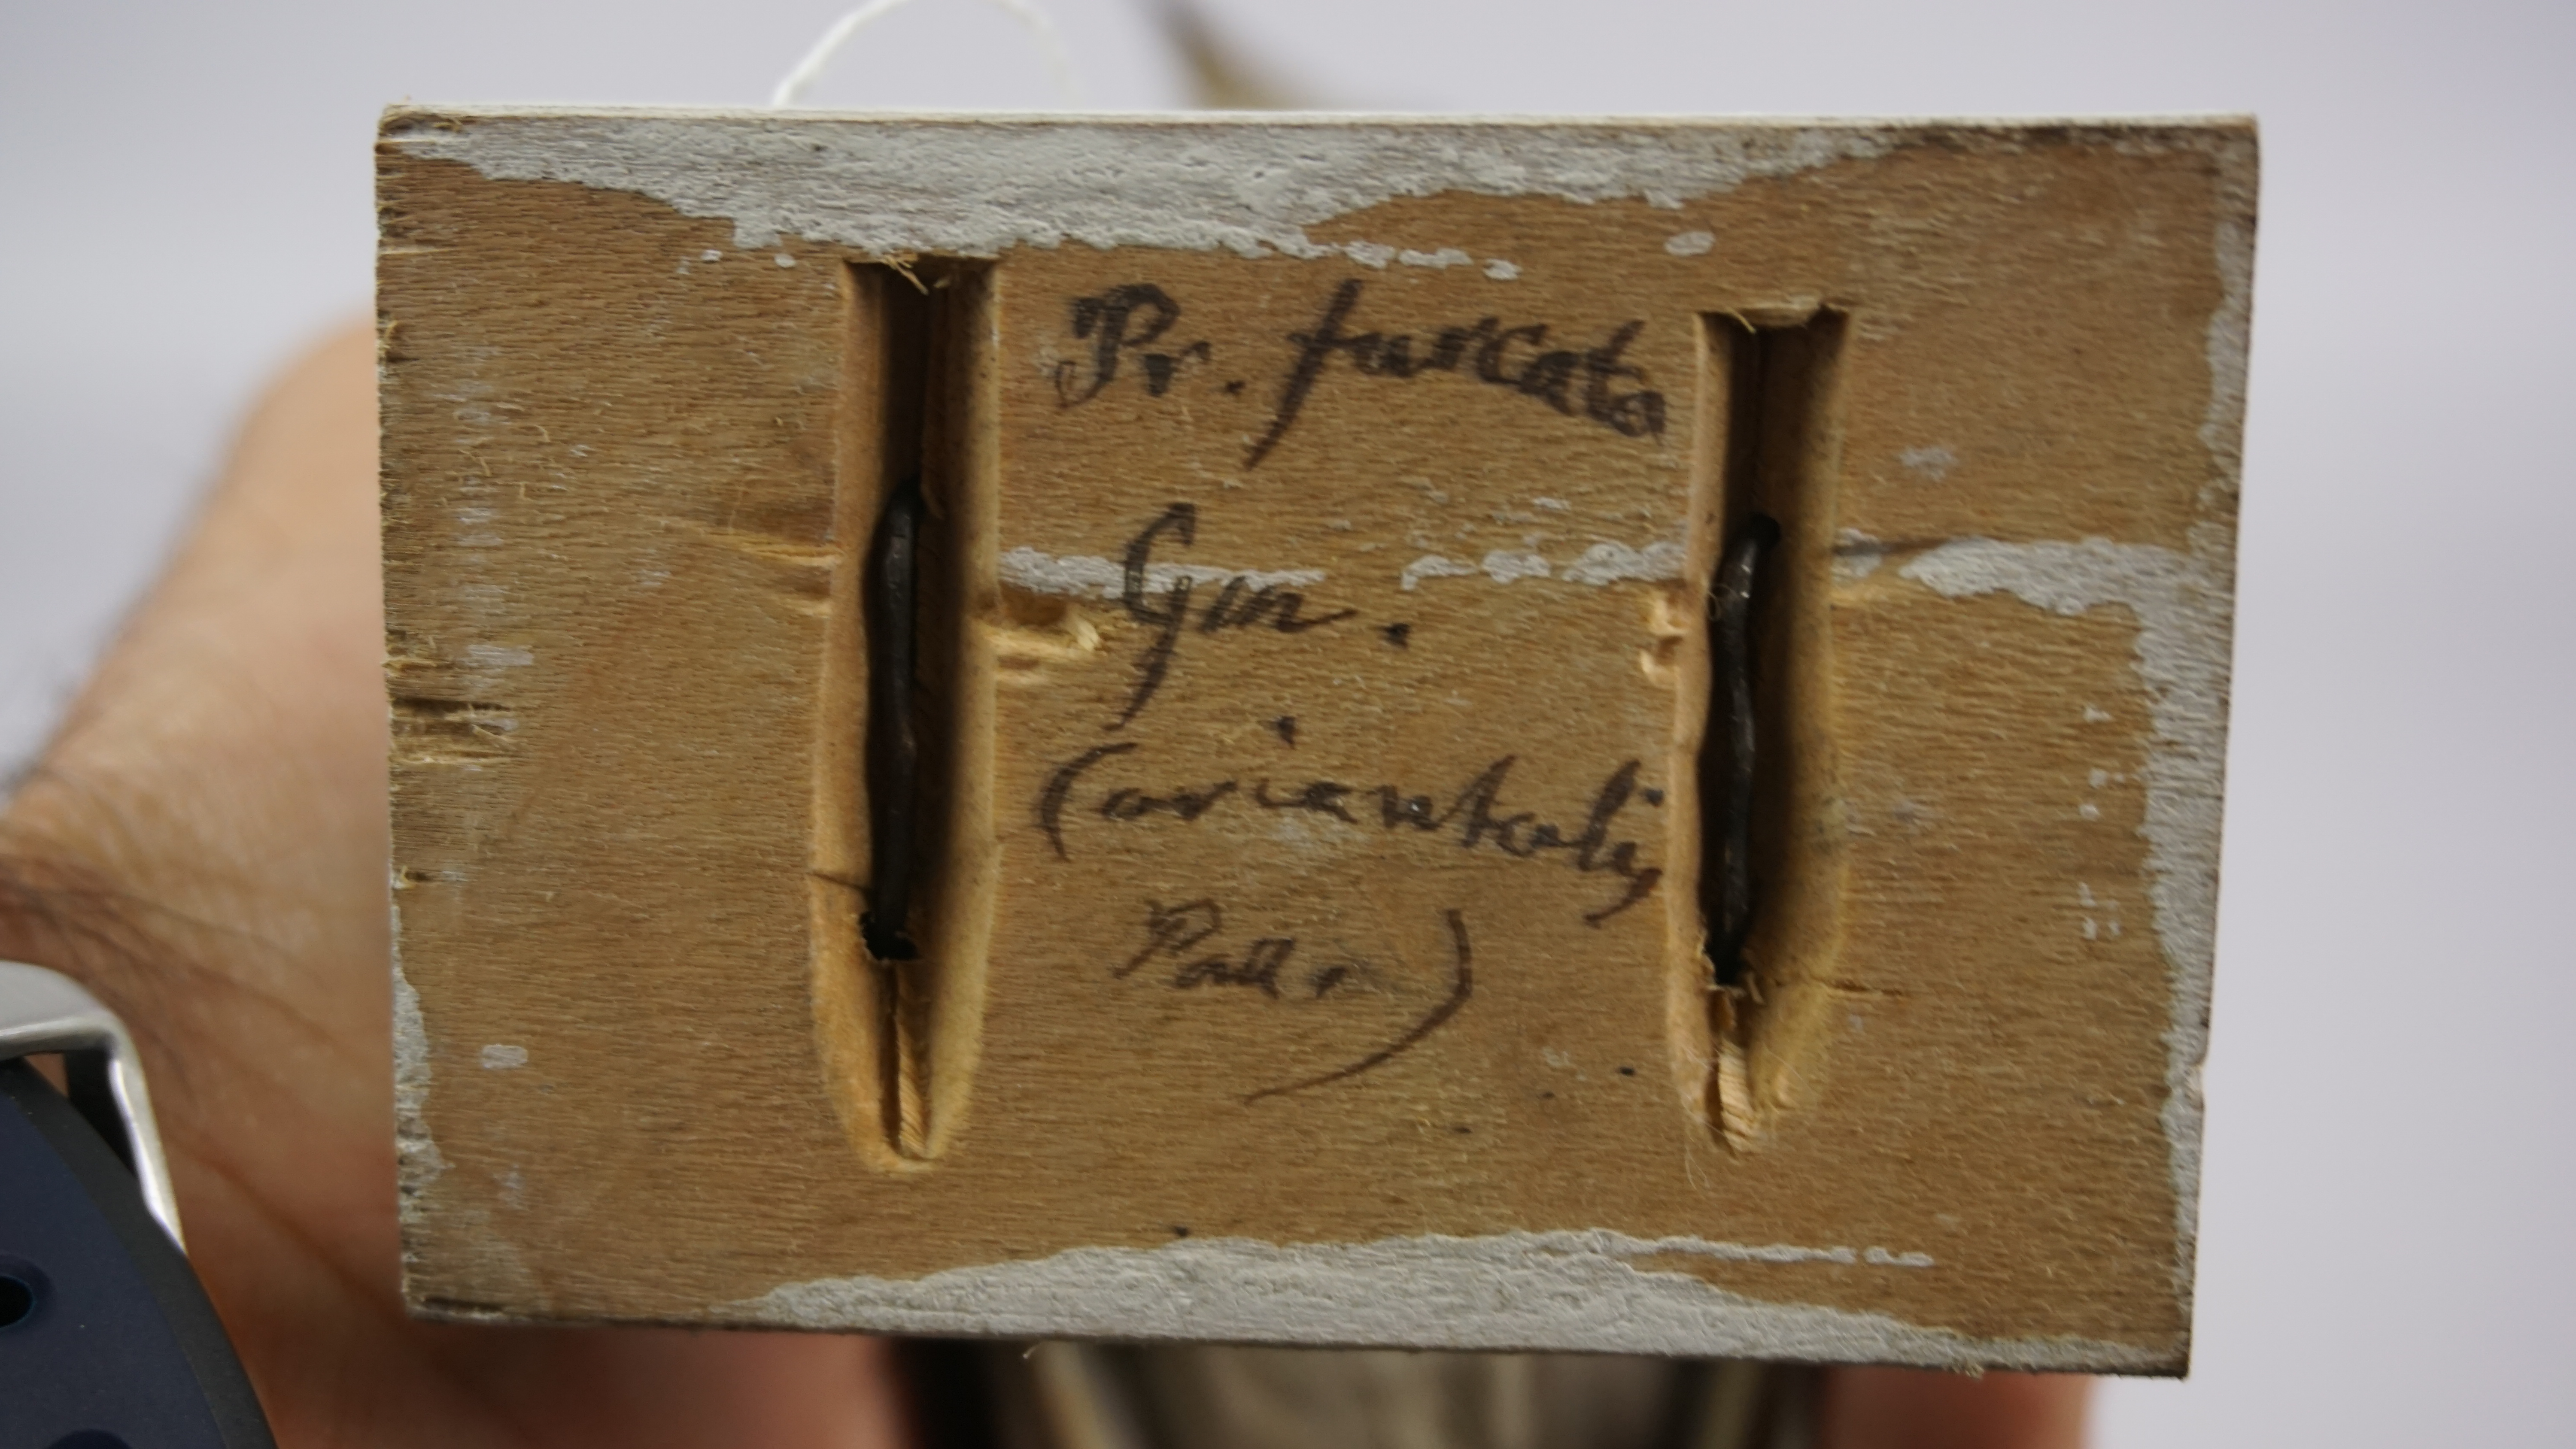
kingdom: Animalia
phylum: Chordata
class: Aves
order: Procellariiformes
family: Hydrobatidae
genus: Oceanodroma
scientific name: Oceanodroma furcata
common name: Fork-tailed storm-petrel
